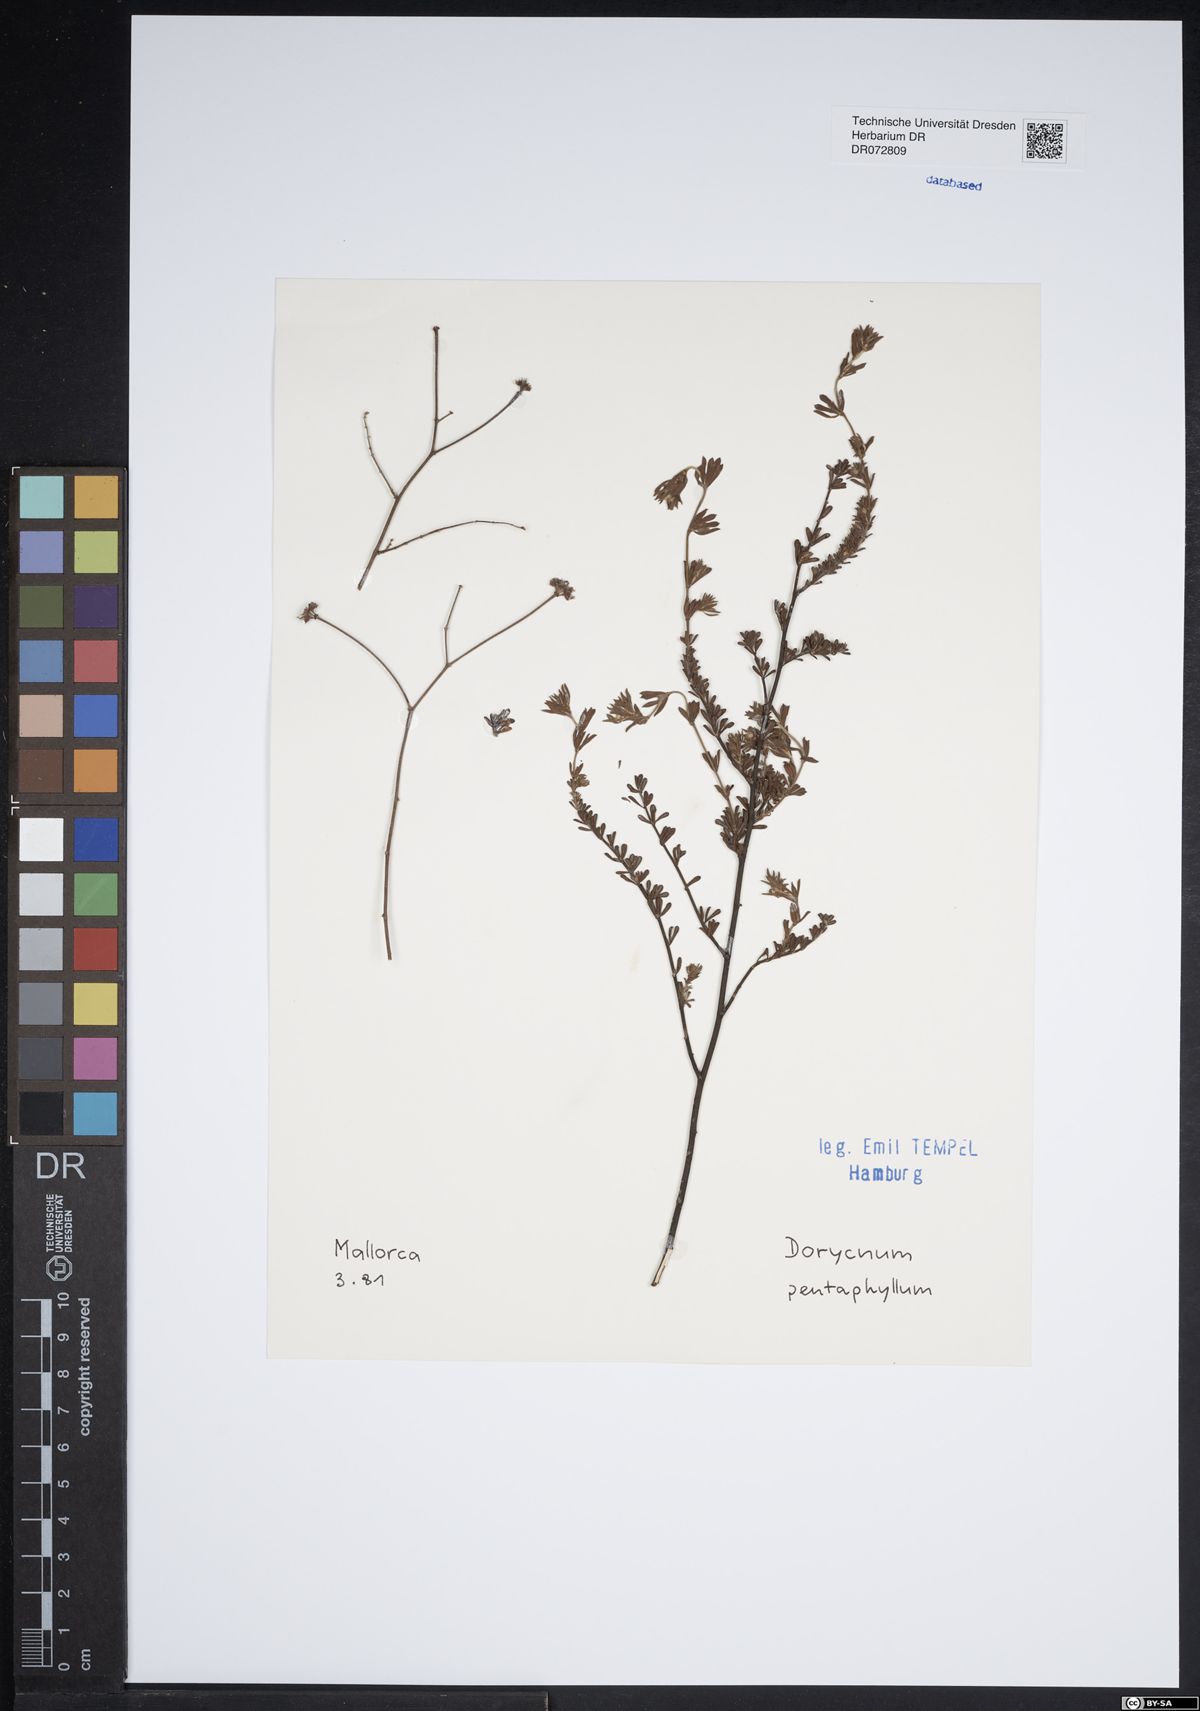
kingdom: Plantae
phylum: Tracheophyta
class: Magnoliopsida
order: Boraginales
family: Boraginaceae
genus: Anchusa
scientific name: Anchusa
